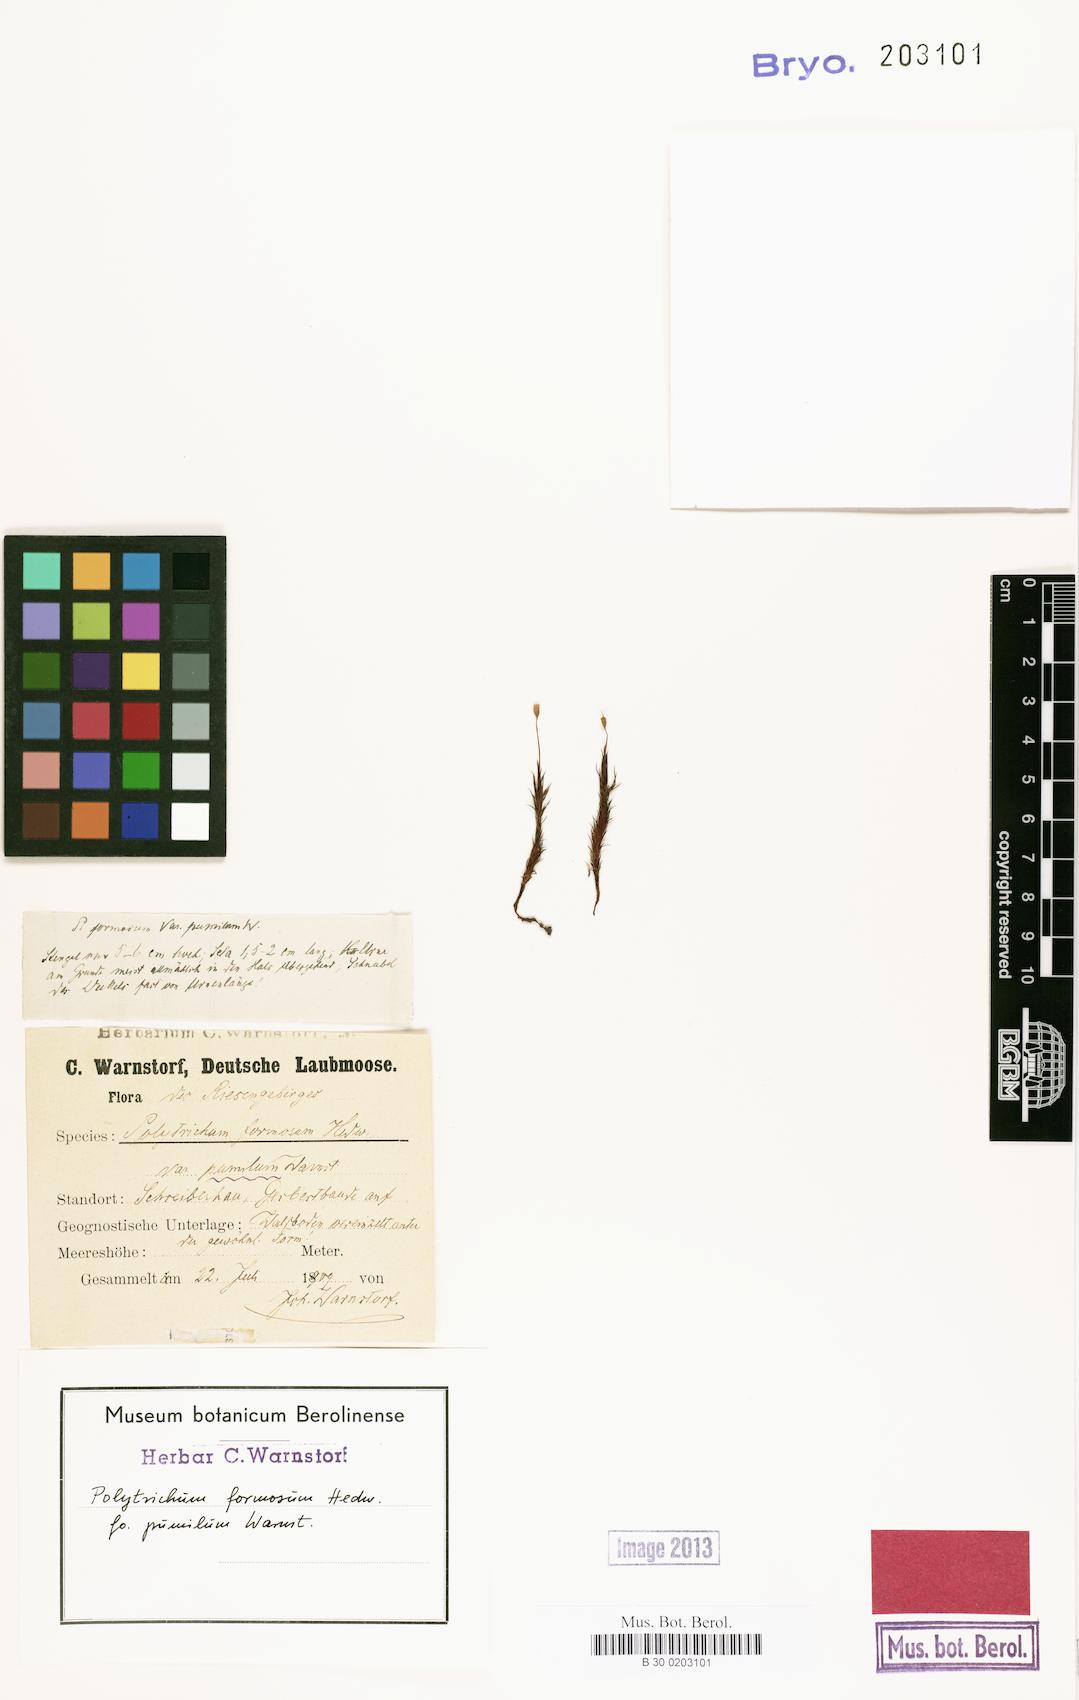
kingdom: Plantae
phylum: Bryophyta
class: Polytrichopsida
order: Polytrichales
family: Polytrichaceae
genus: Polytrichum
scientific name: Polytrichum formosum
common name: Bank haircap moss
